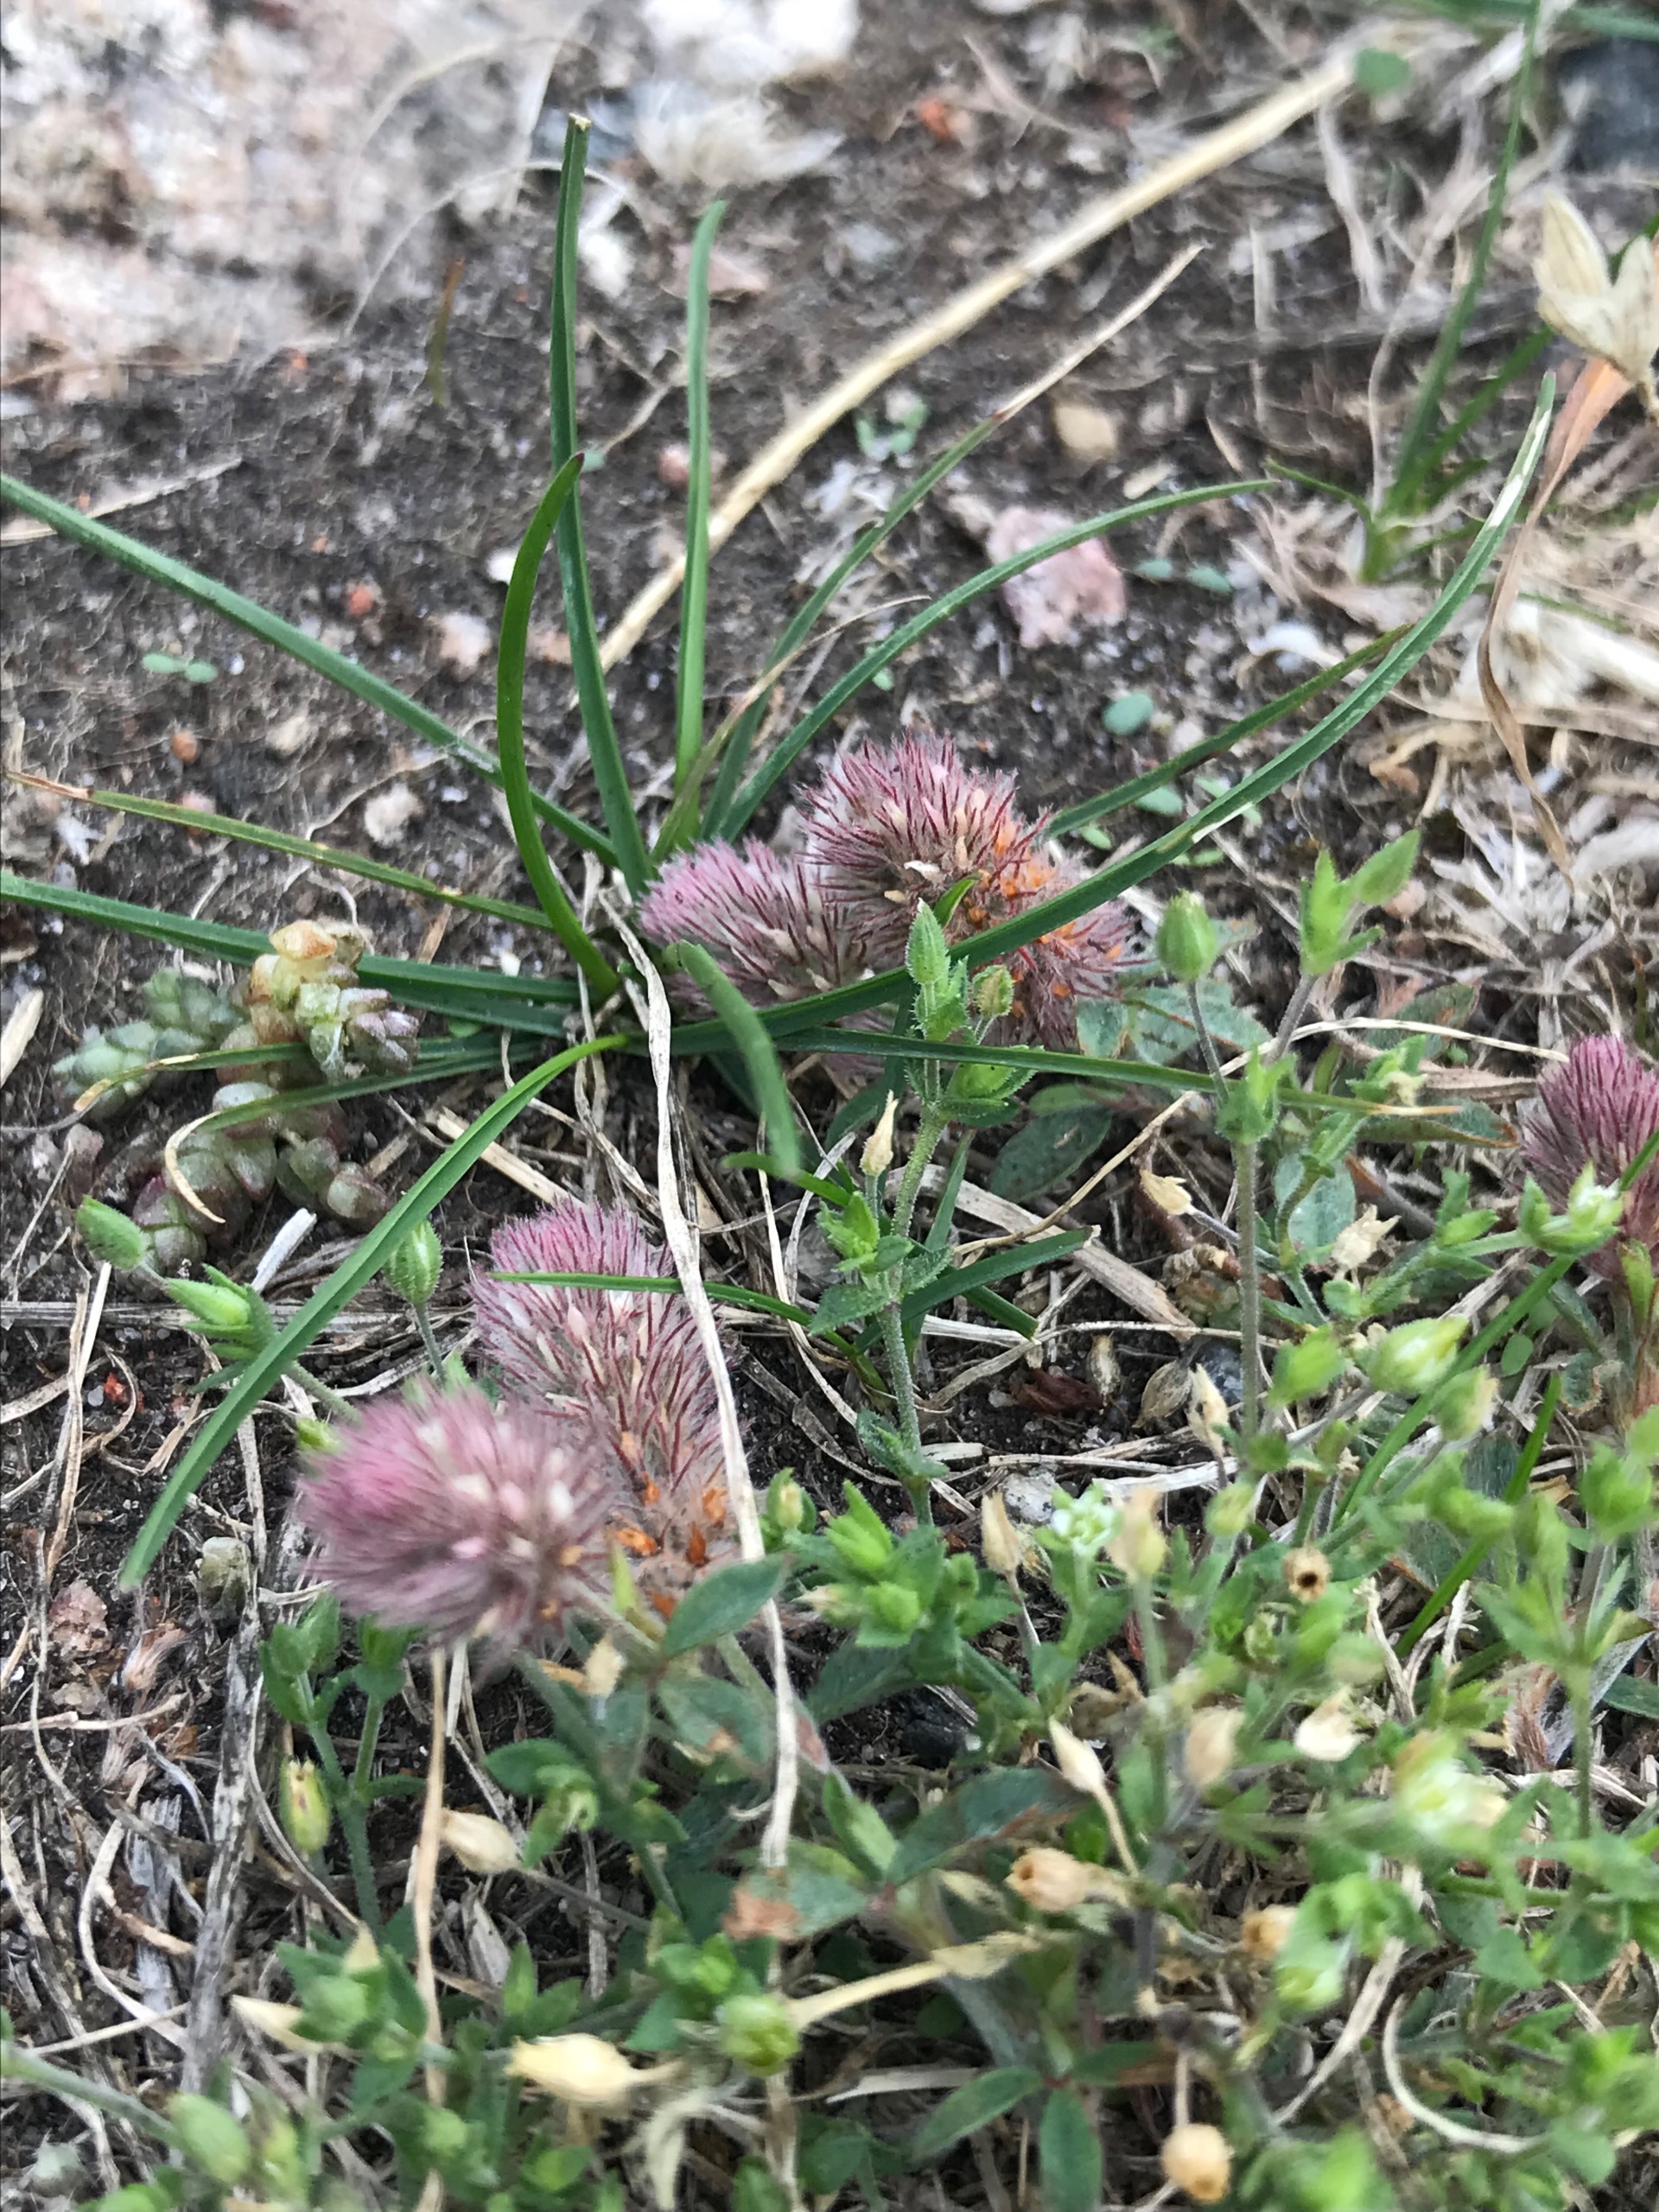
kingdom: Plantae
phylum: Tracheophyta
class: Magnoliopsida
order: Fabales
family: Fabaceae
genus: Trifolium
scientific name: Trifolium arvense
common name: Hare-kløver
